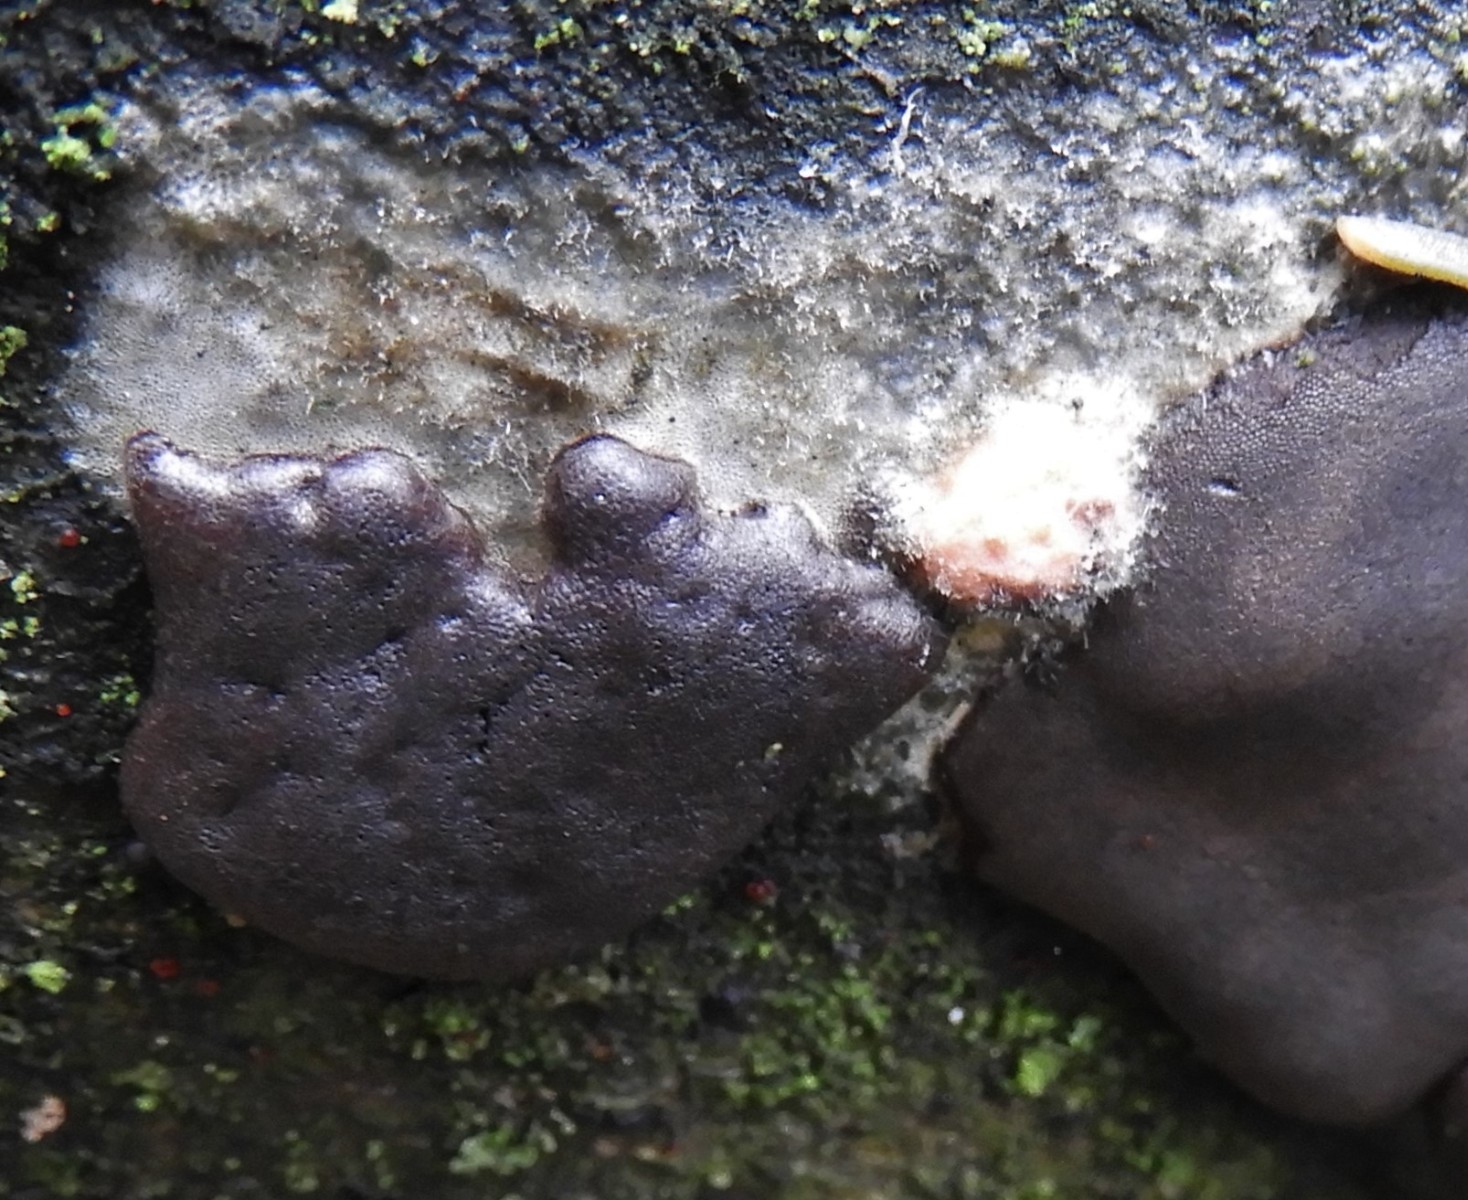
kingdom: Protozoa
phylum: Mycetozoa
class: Myxomycetes
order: Trichiales
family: Dictydiaethaliaceae
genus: Dictydiaethalium
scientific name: Dictydiaethalium plumbeum
